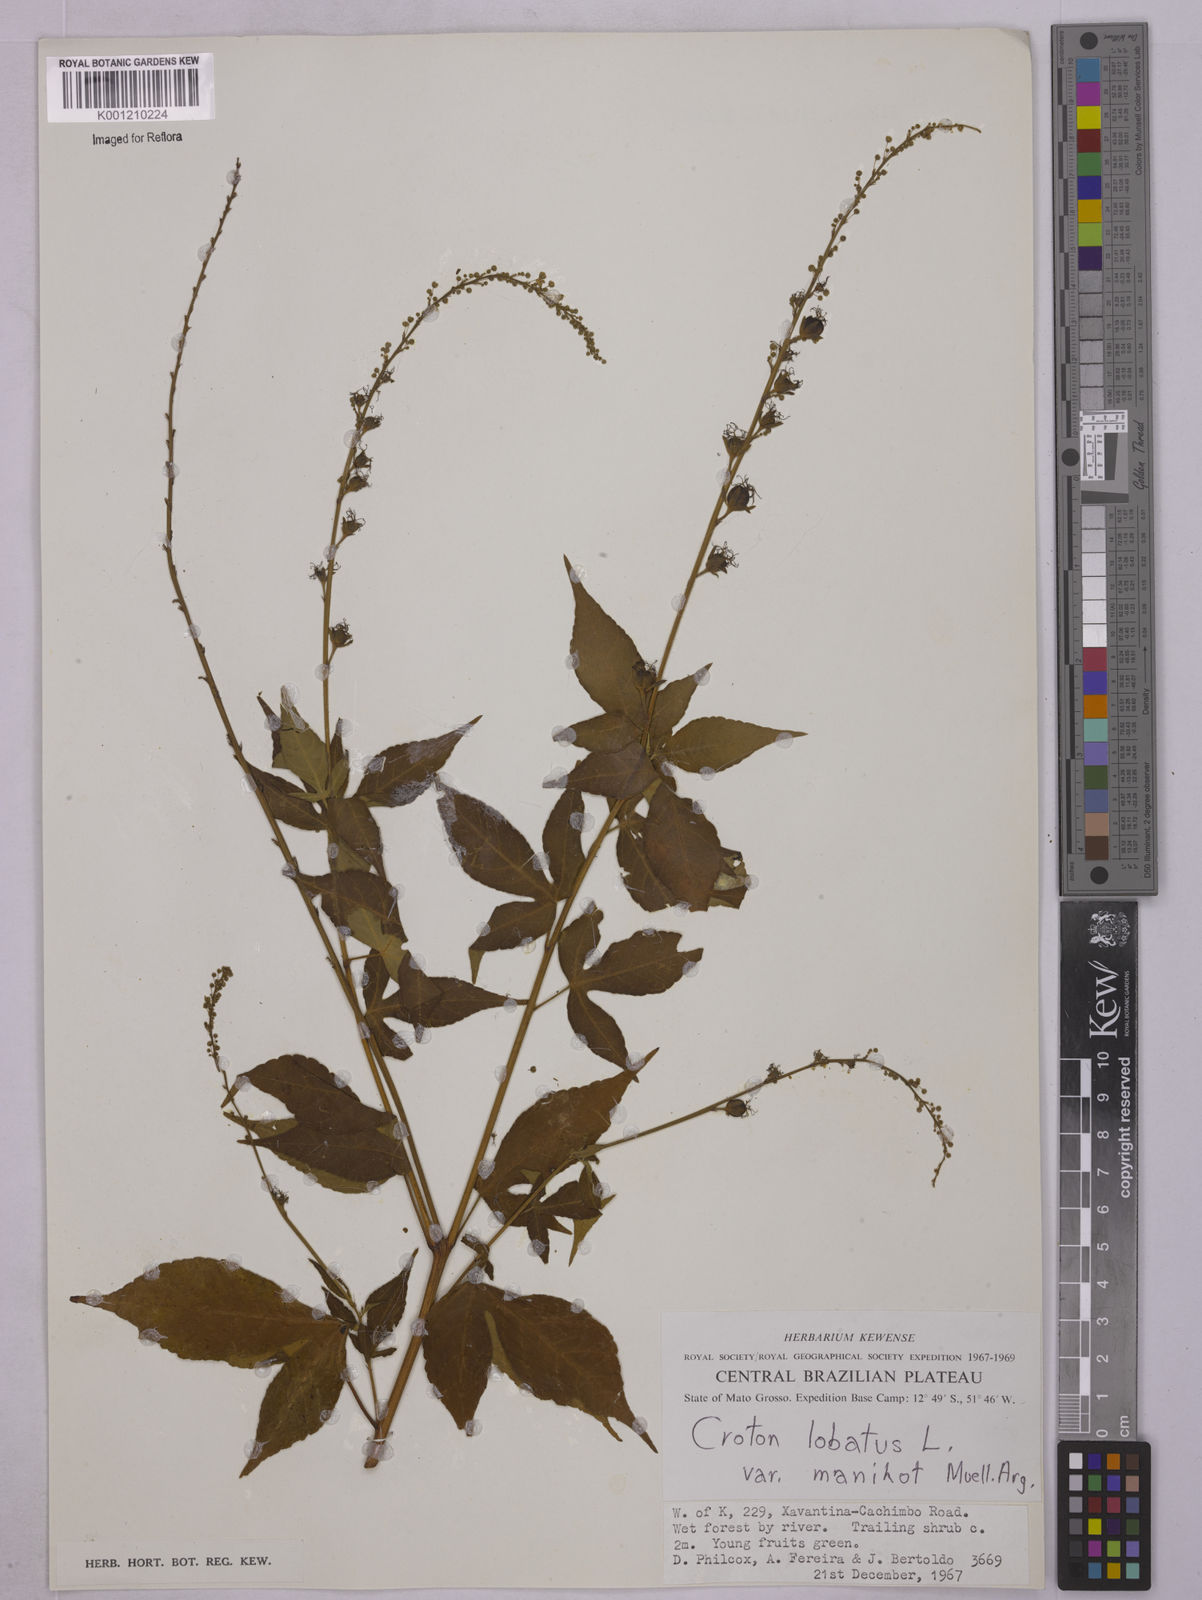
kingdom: Plantae
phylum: Tracheophyta
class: Magnoliopsida
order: Malpighiales
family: Euphorbiaceae
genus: Astraea
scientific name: Astraea lobata
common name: Lobed croton
